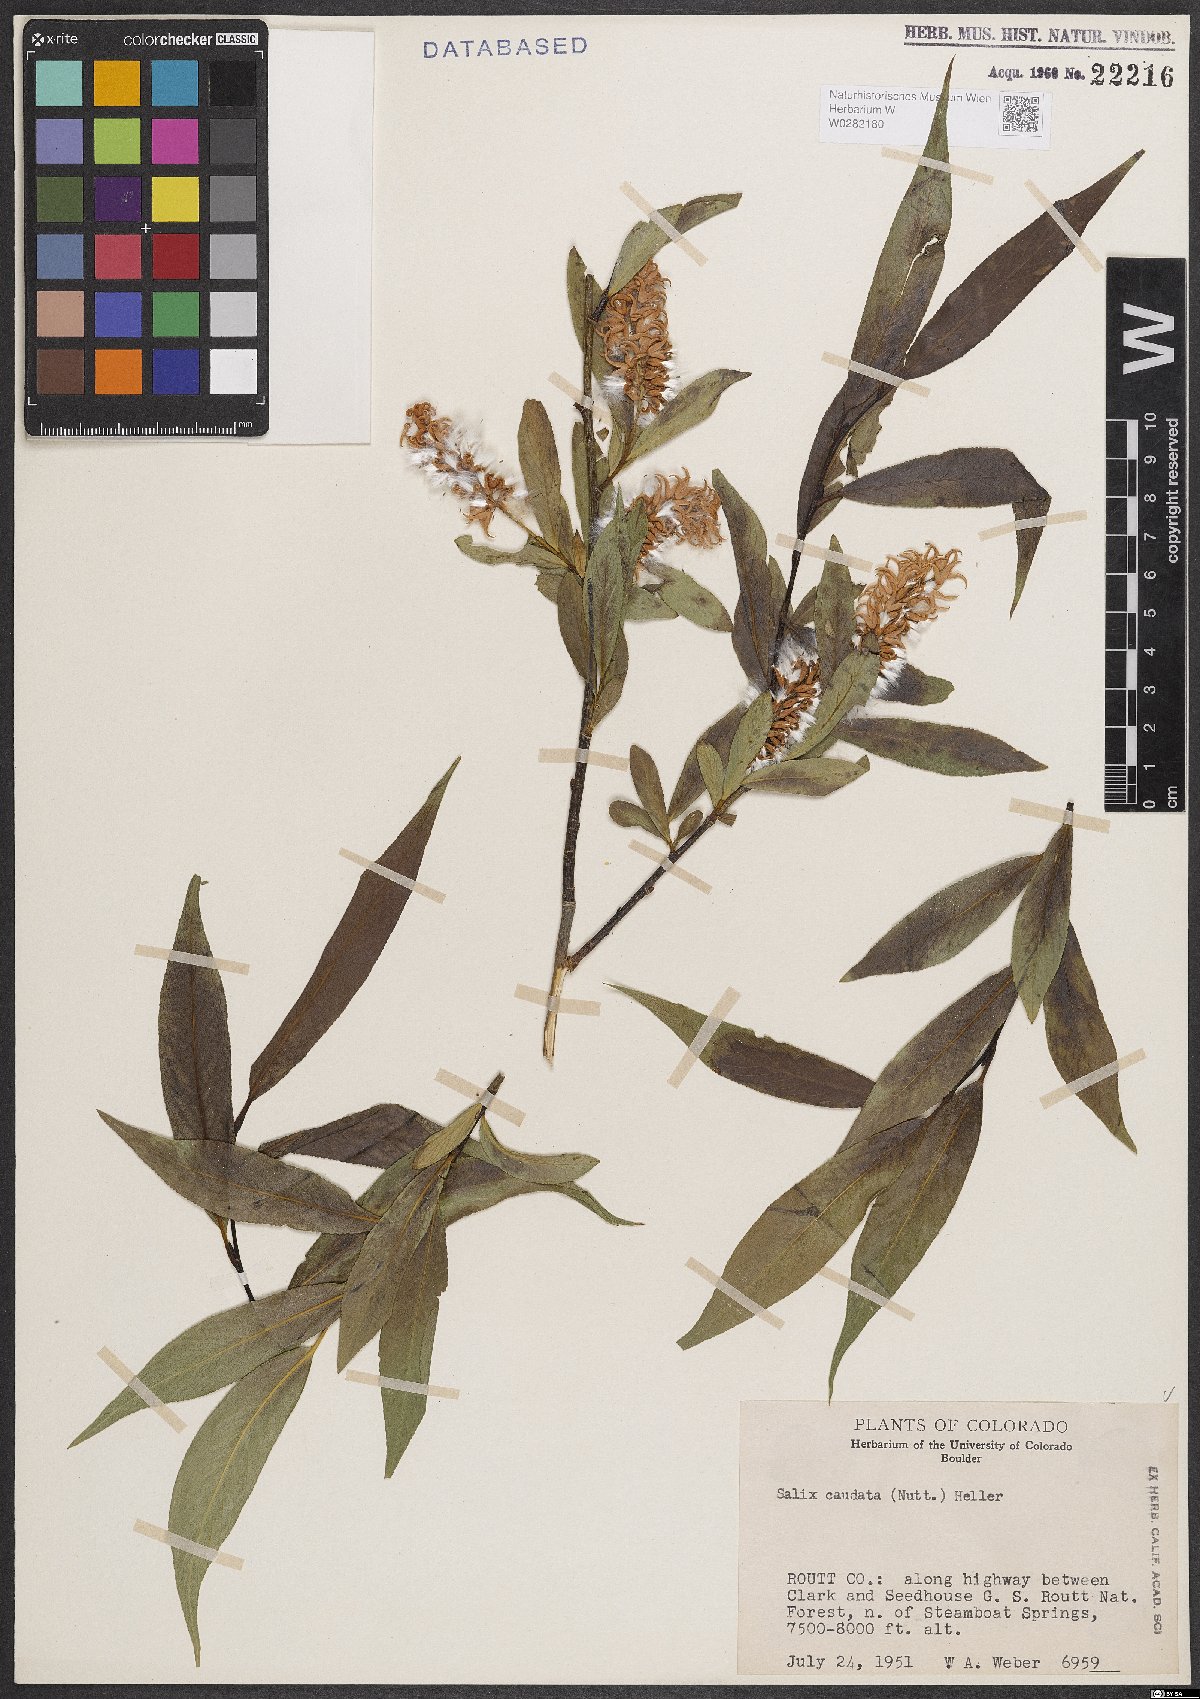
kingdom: Plantae
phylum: Tracheophyta
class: Magnoliopsida
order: Malpighiales
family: Salicaceae
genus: Salix
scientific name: Salix lucida
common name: Shining willow
